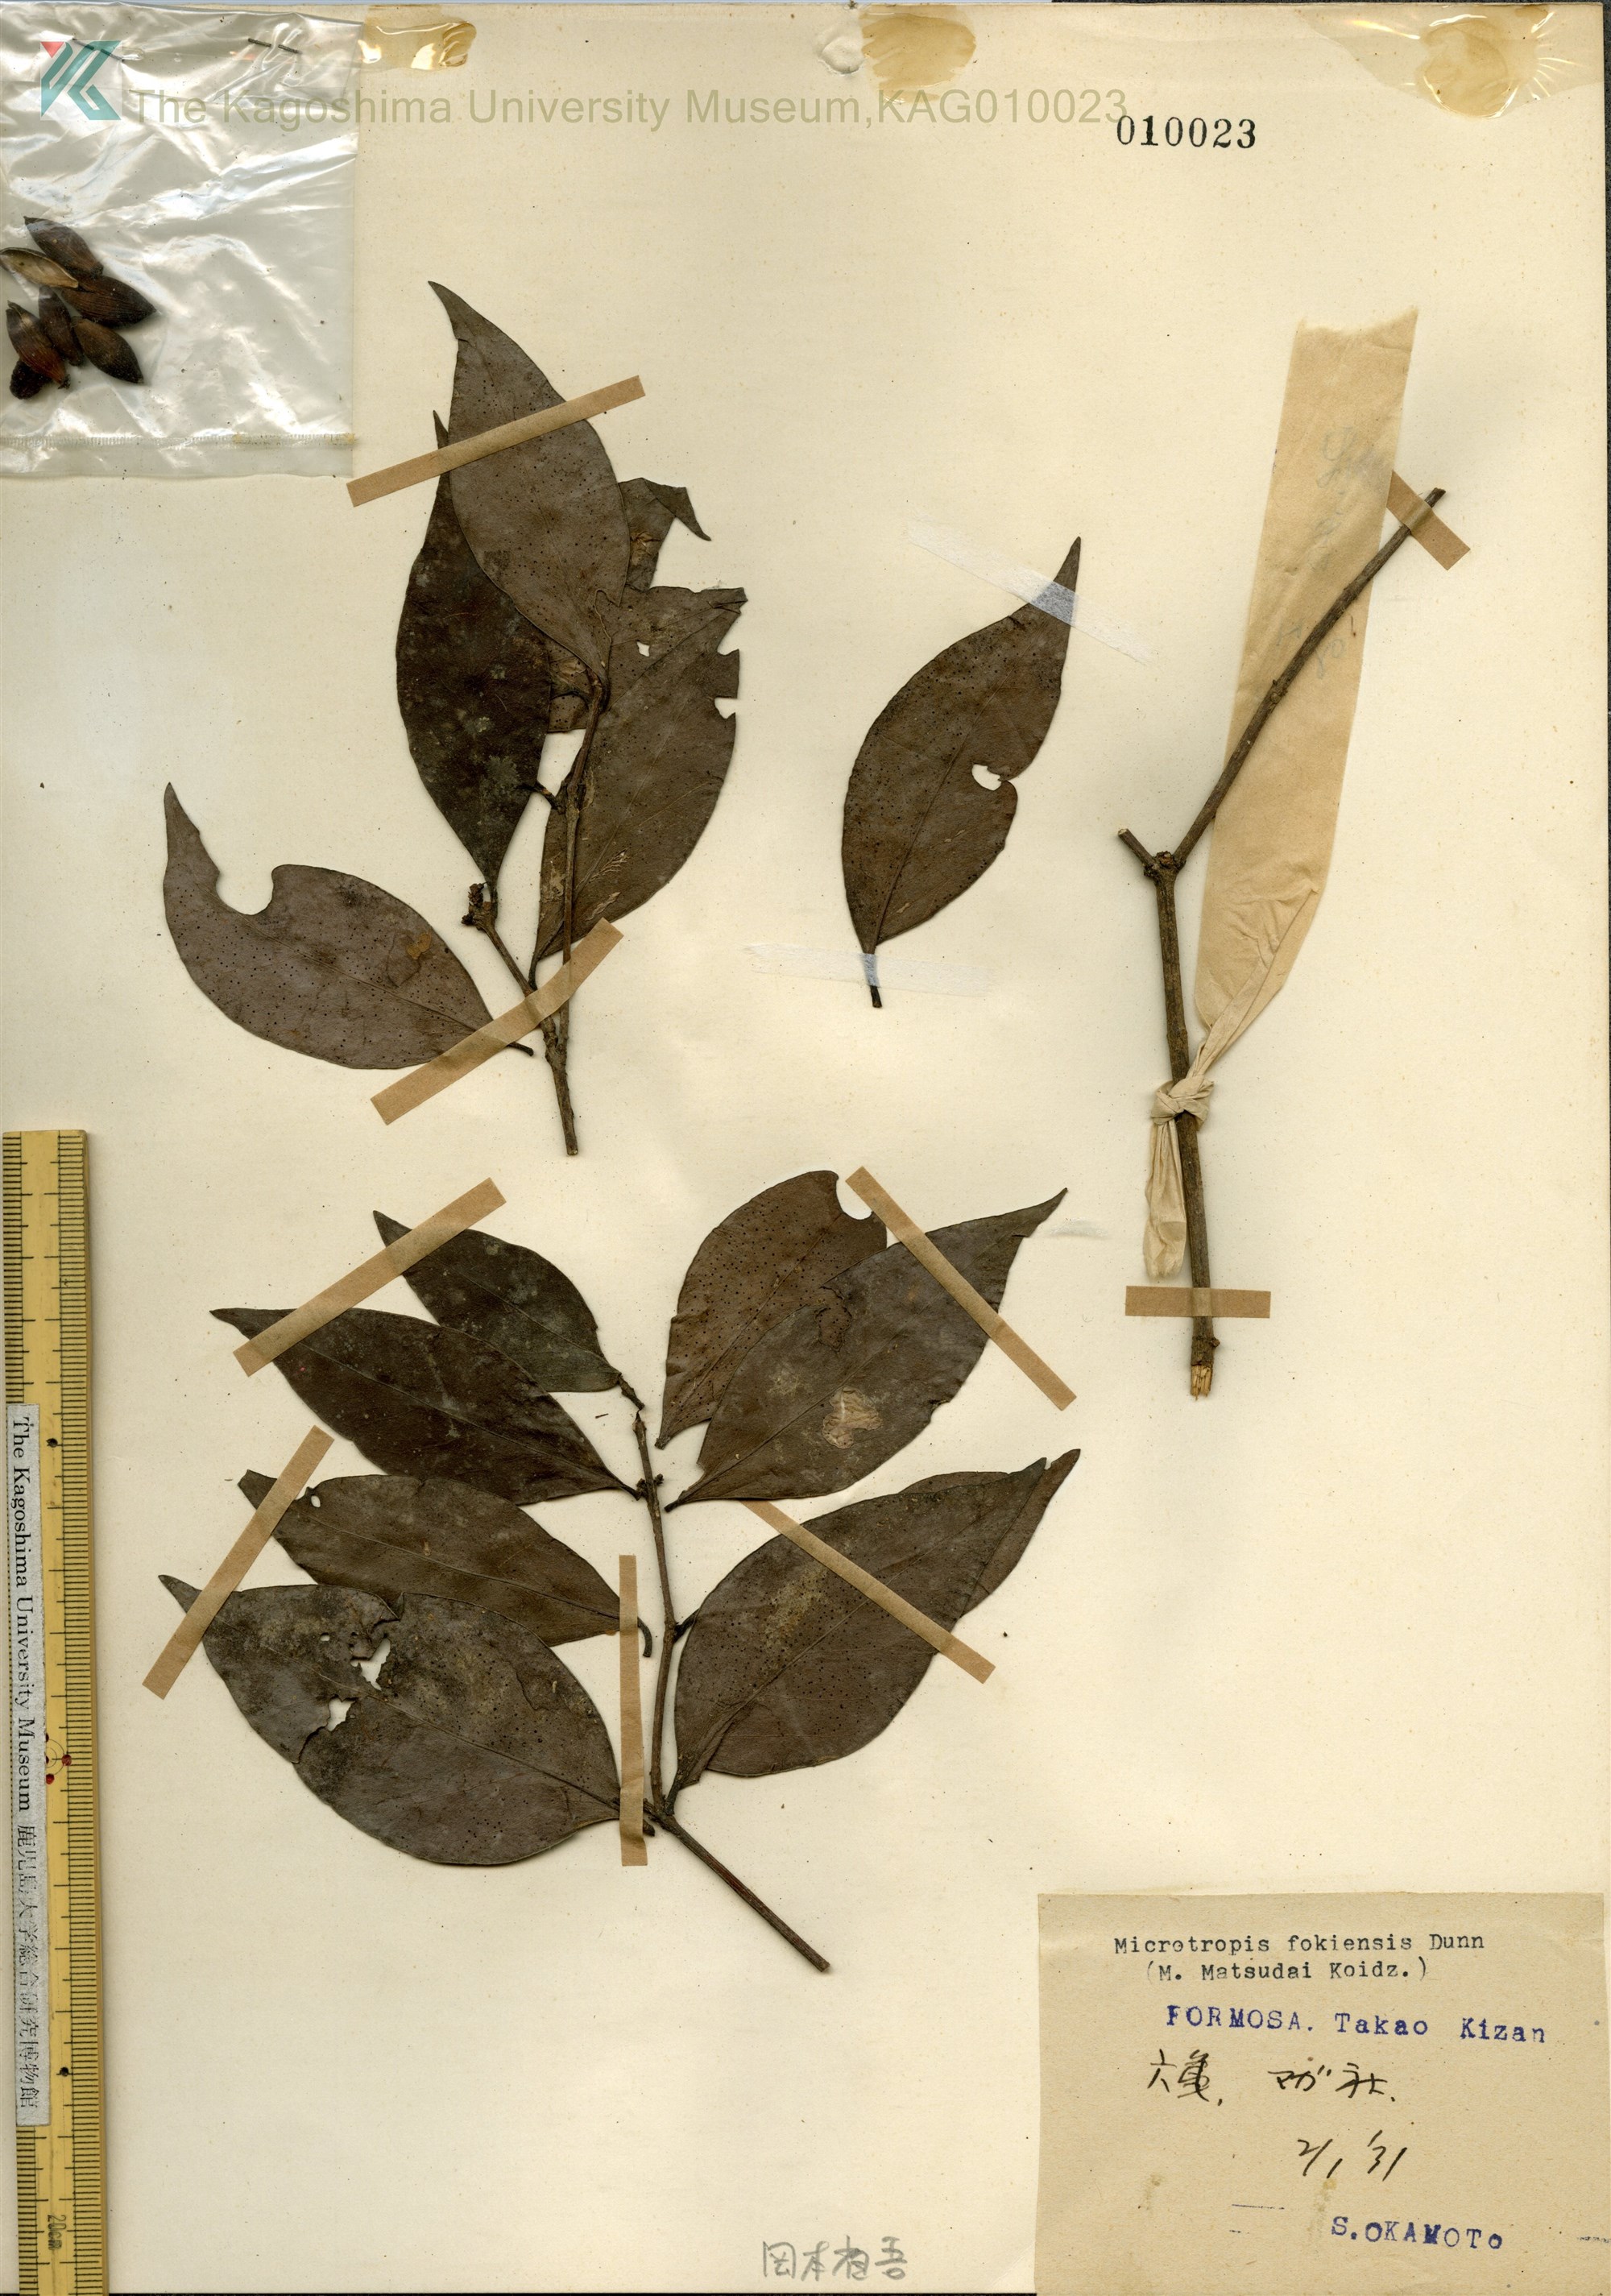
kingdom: Plantae
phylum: Tracheophyta
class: Magnoliopsida
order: Celastrales
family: Celastraceae
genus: Maytenus
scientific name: Maytenus
